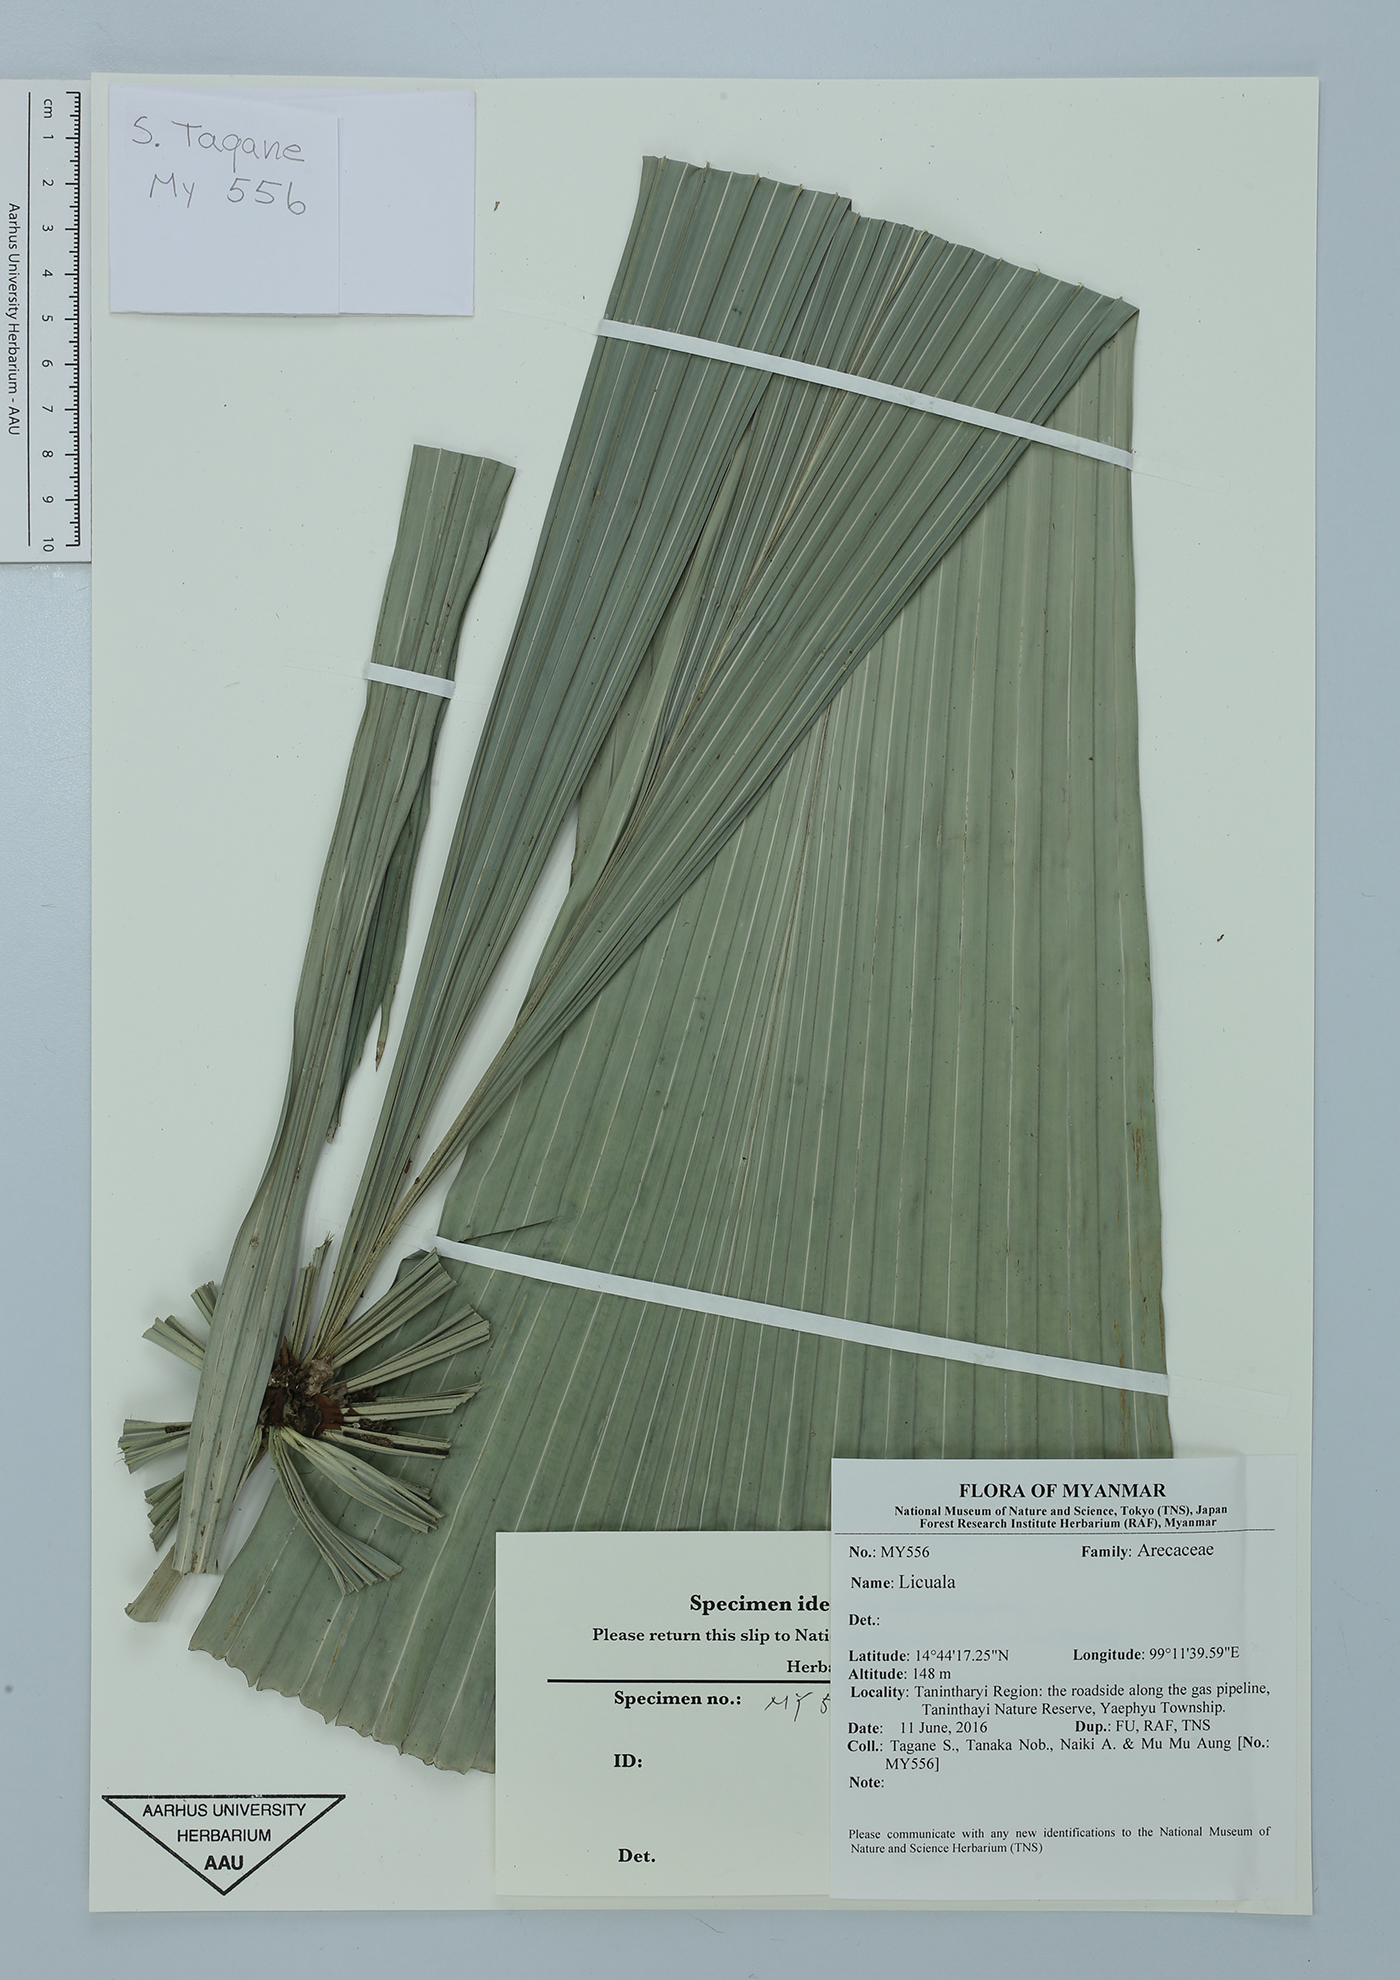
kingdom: Plantae
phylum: Tracheophyta
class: Liliopsida
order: Arecales
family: Arecaceae
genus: Licuala
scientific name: Licuala
